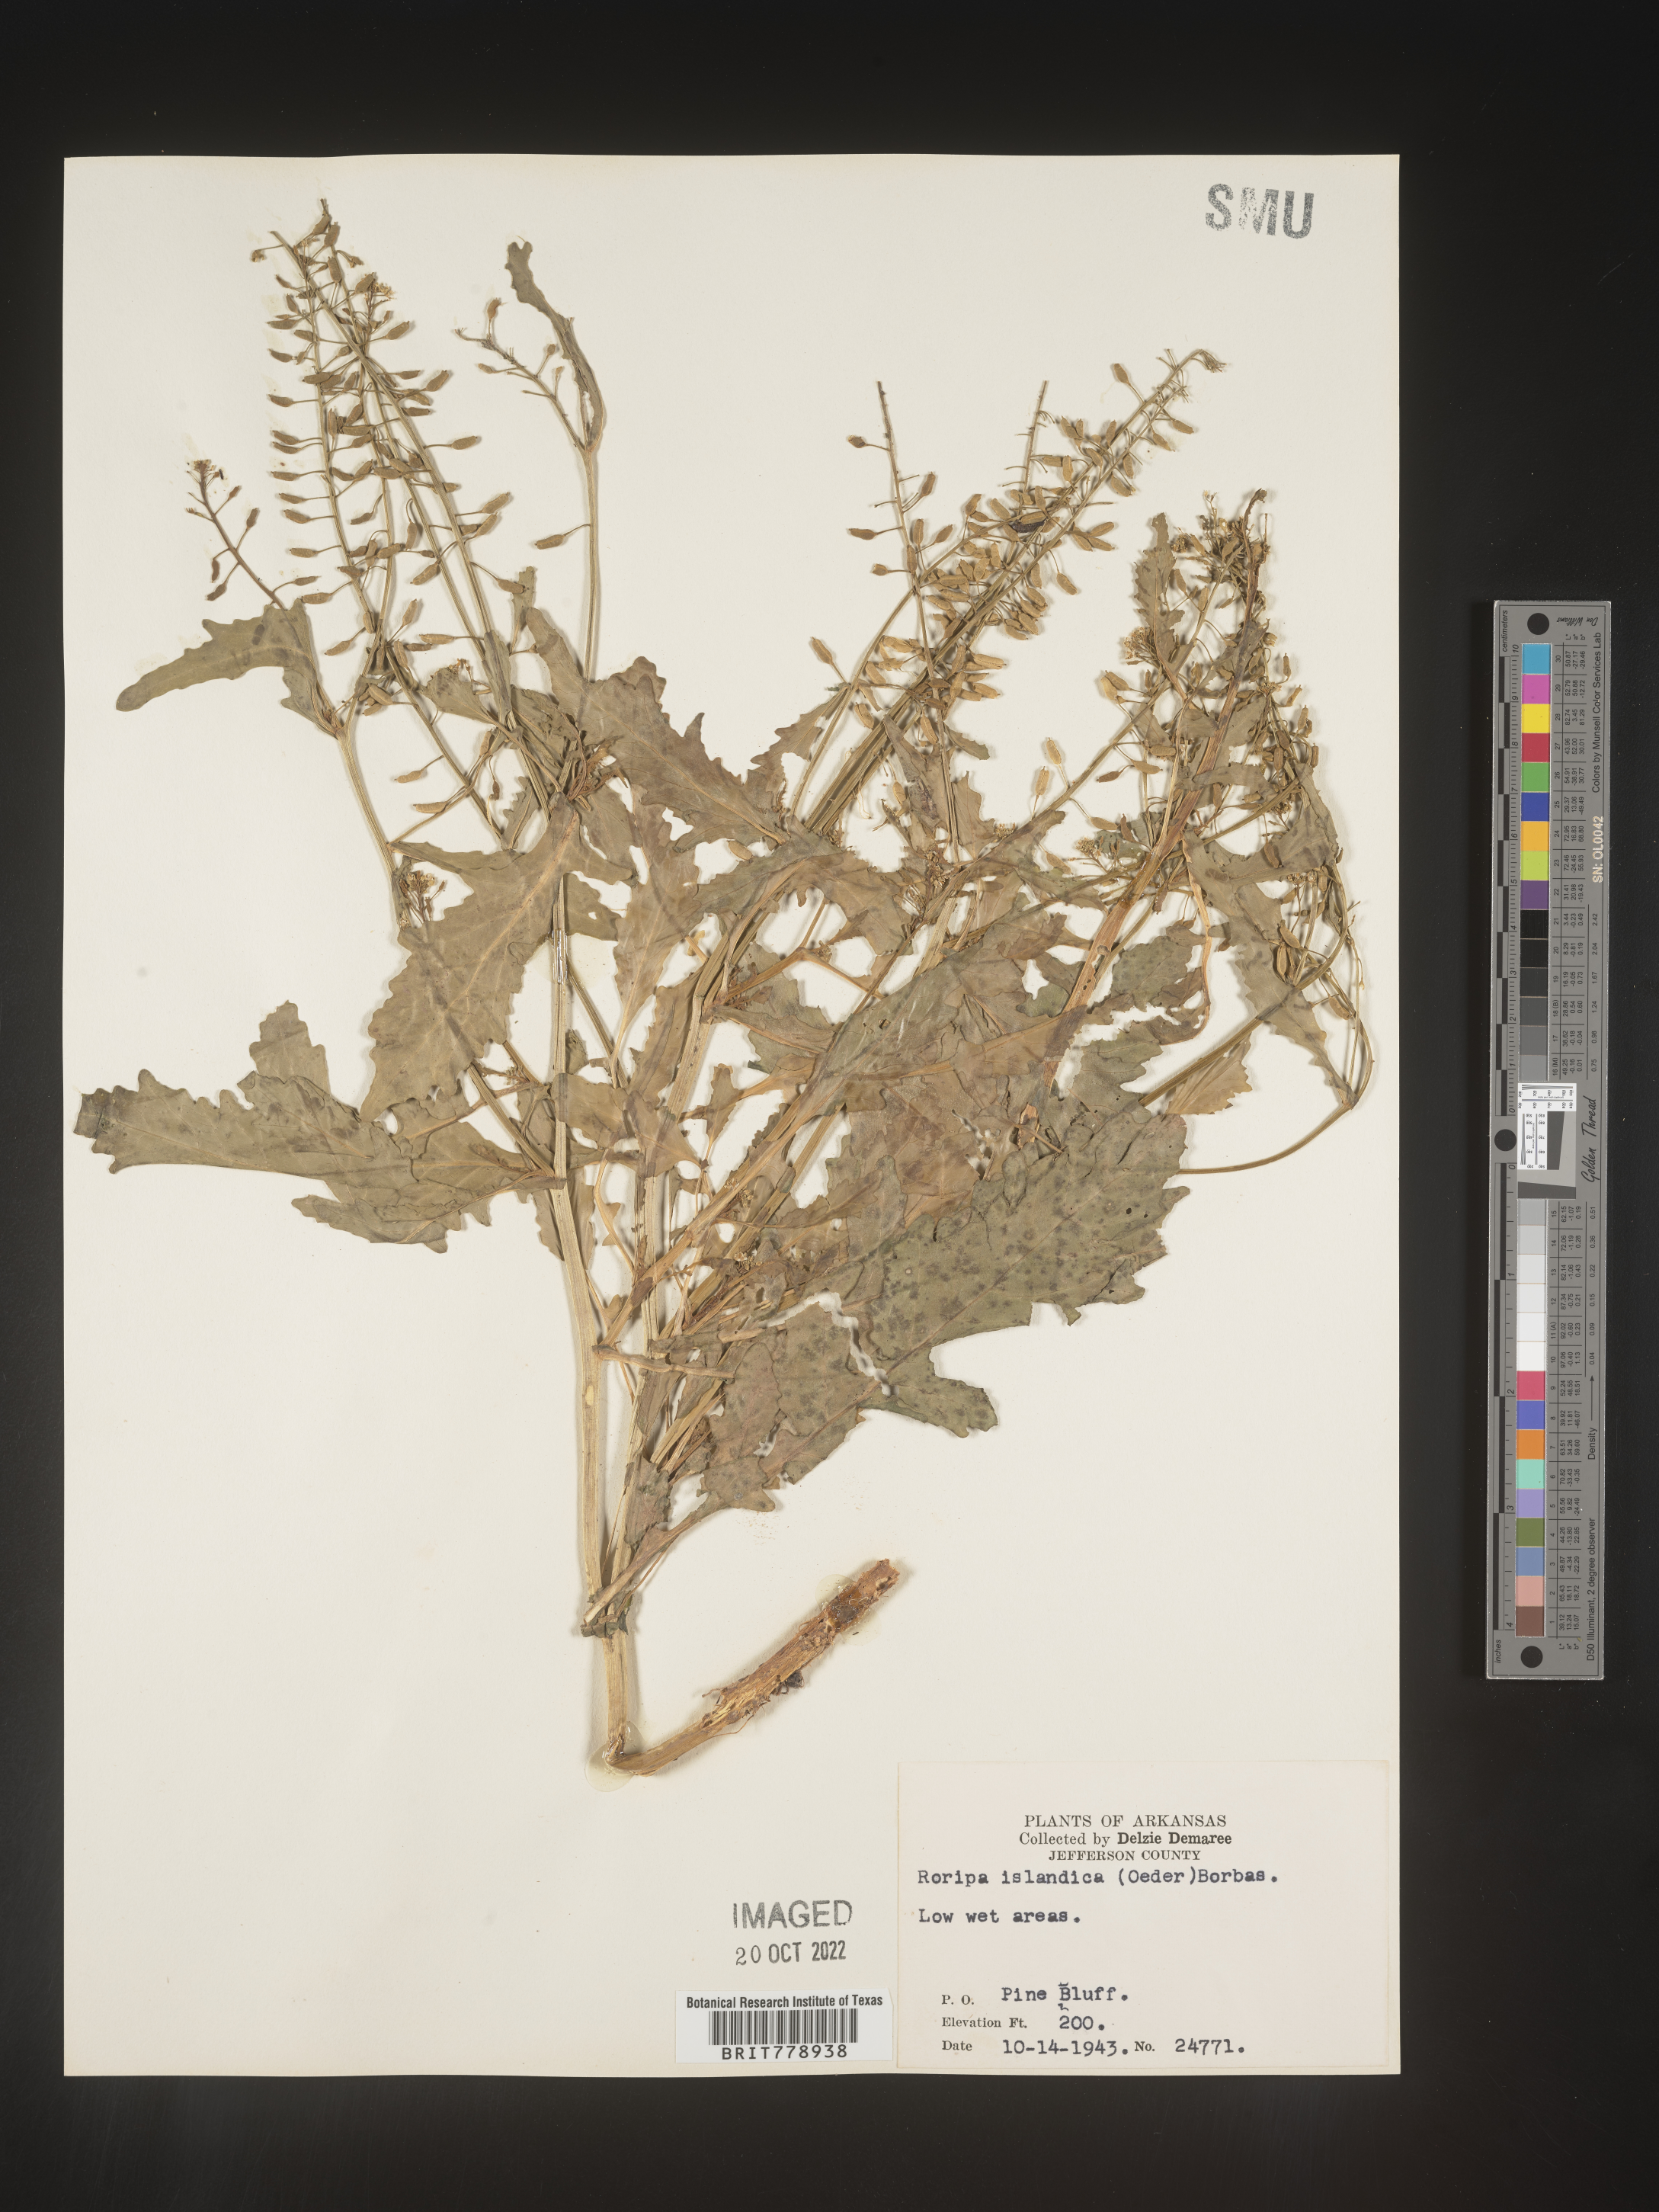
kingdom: Plantae
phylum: Tracheophyta
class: Magnoliopsida
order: Brassicales
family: Brassicaceae
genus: Rorippa
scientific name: Rorippa palustris
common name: Marsh yellow-cress
